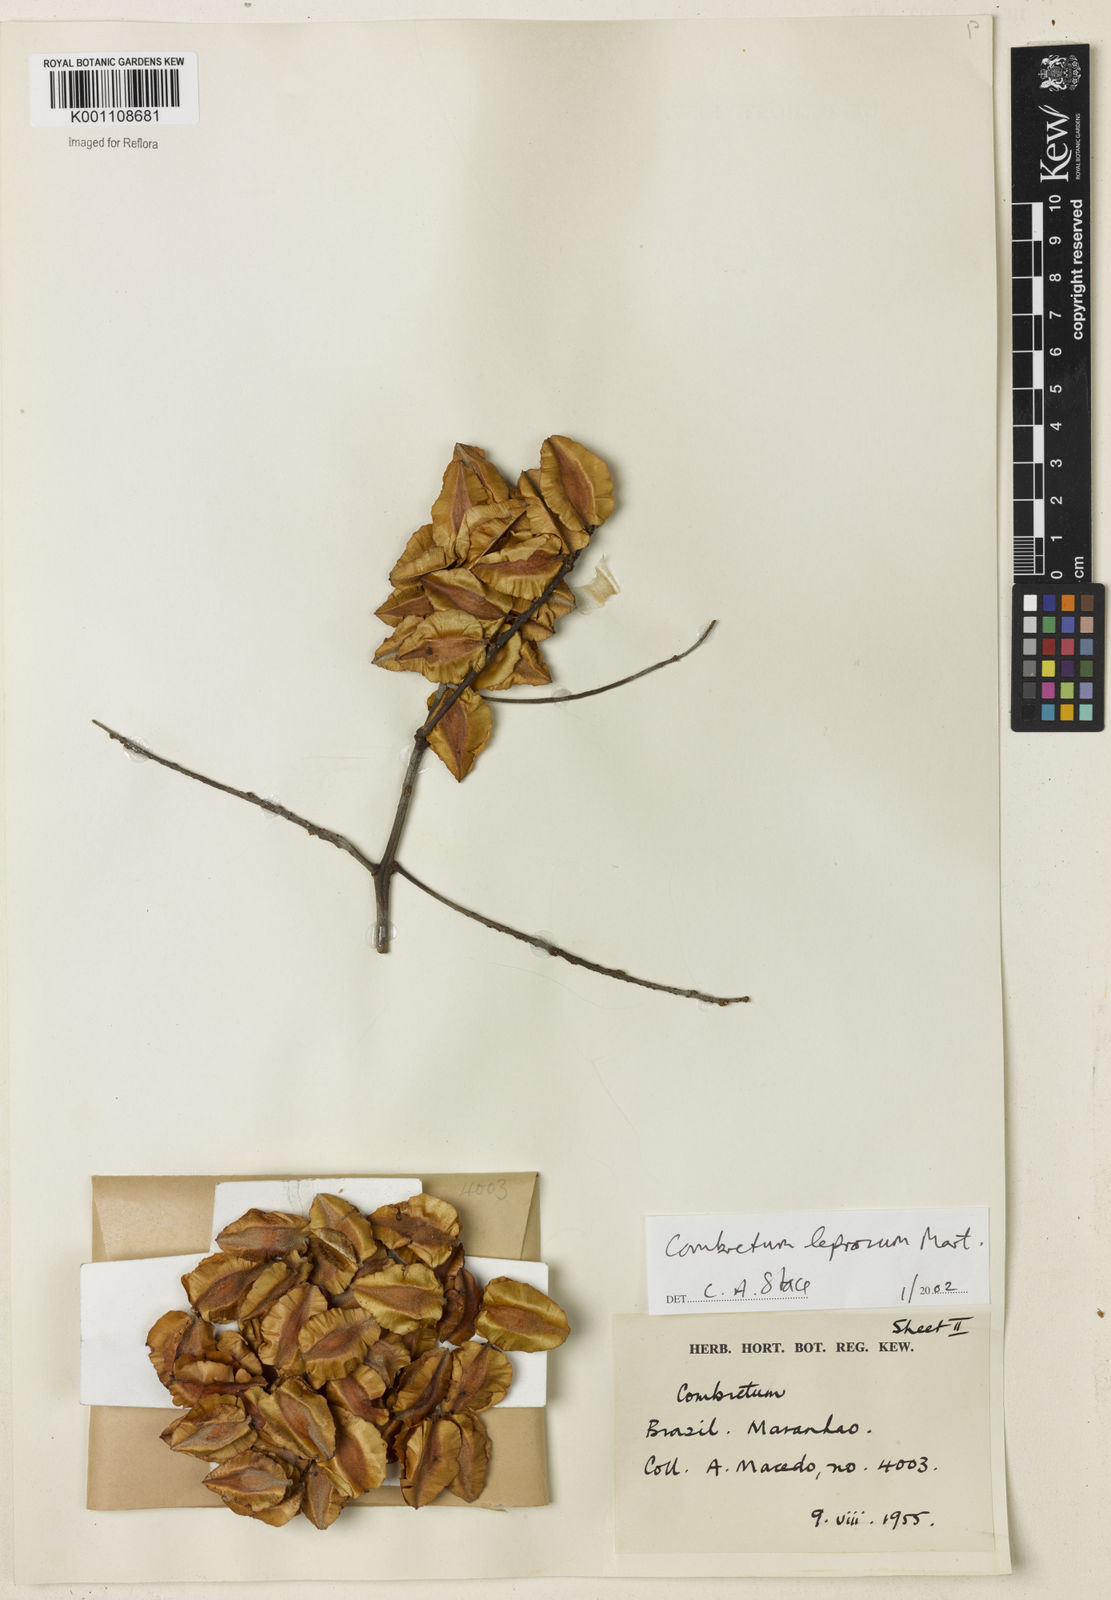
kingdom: Plantae
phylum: Tracheophyta
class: Magnoliopsida
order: Myrtales
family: Combretaceae
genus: Combretum
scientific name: Combretum leprosum
